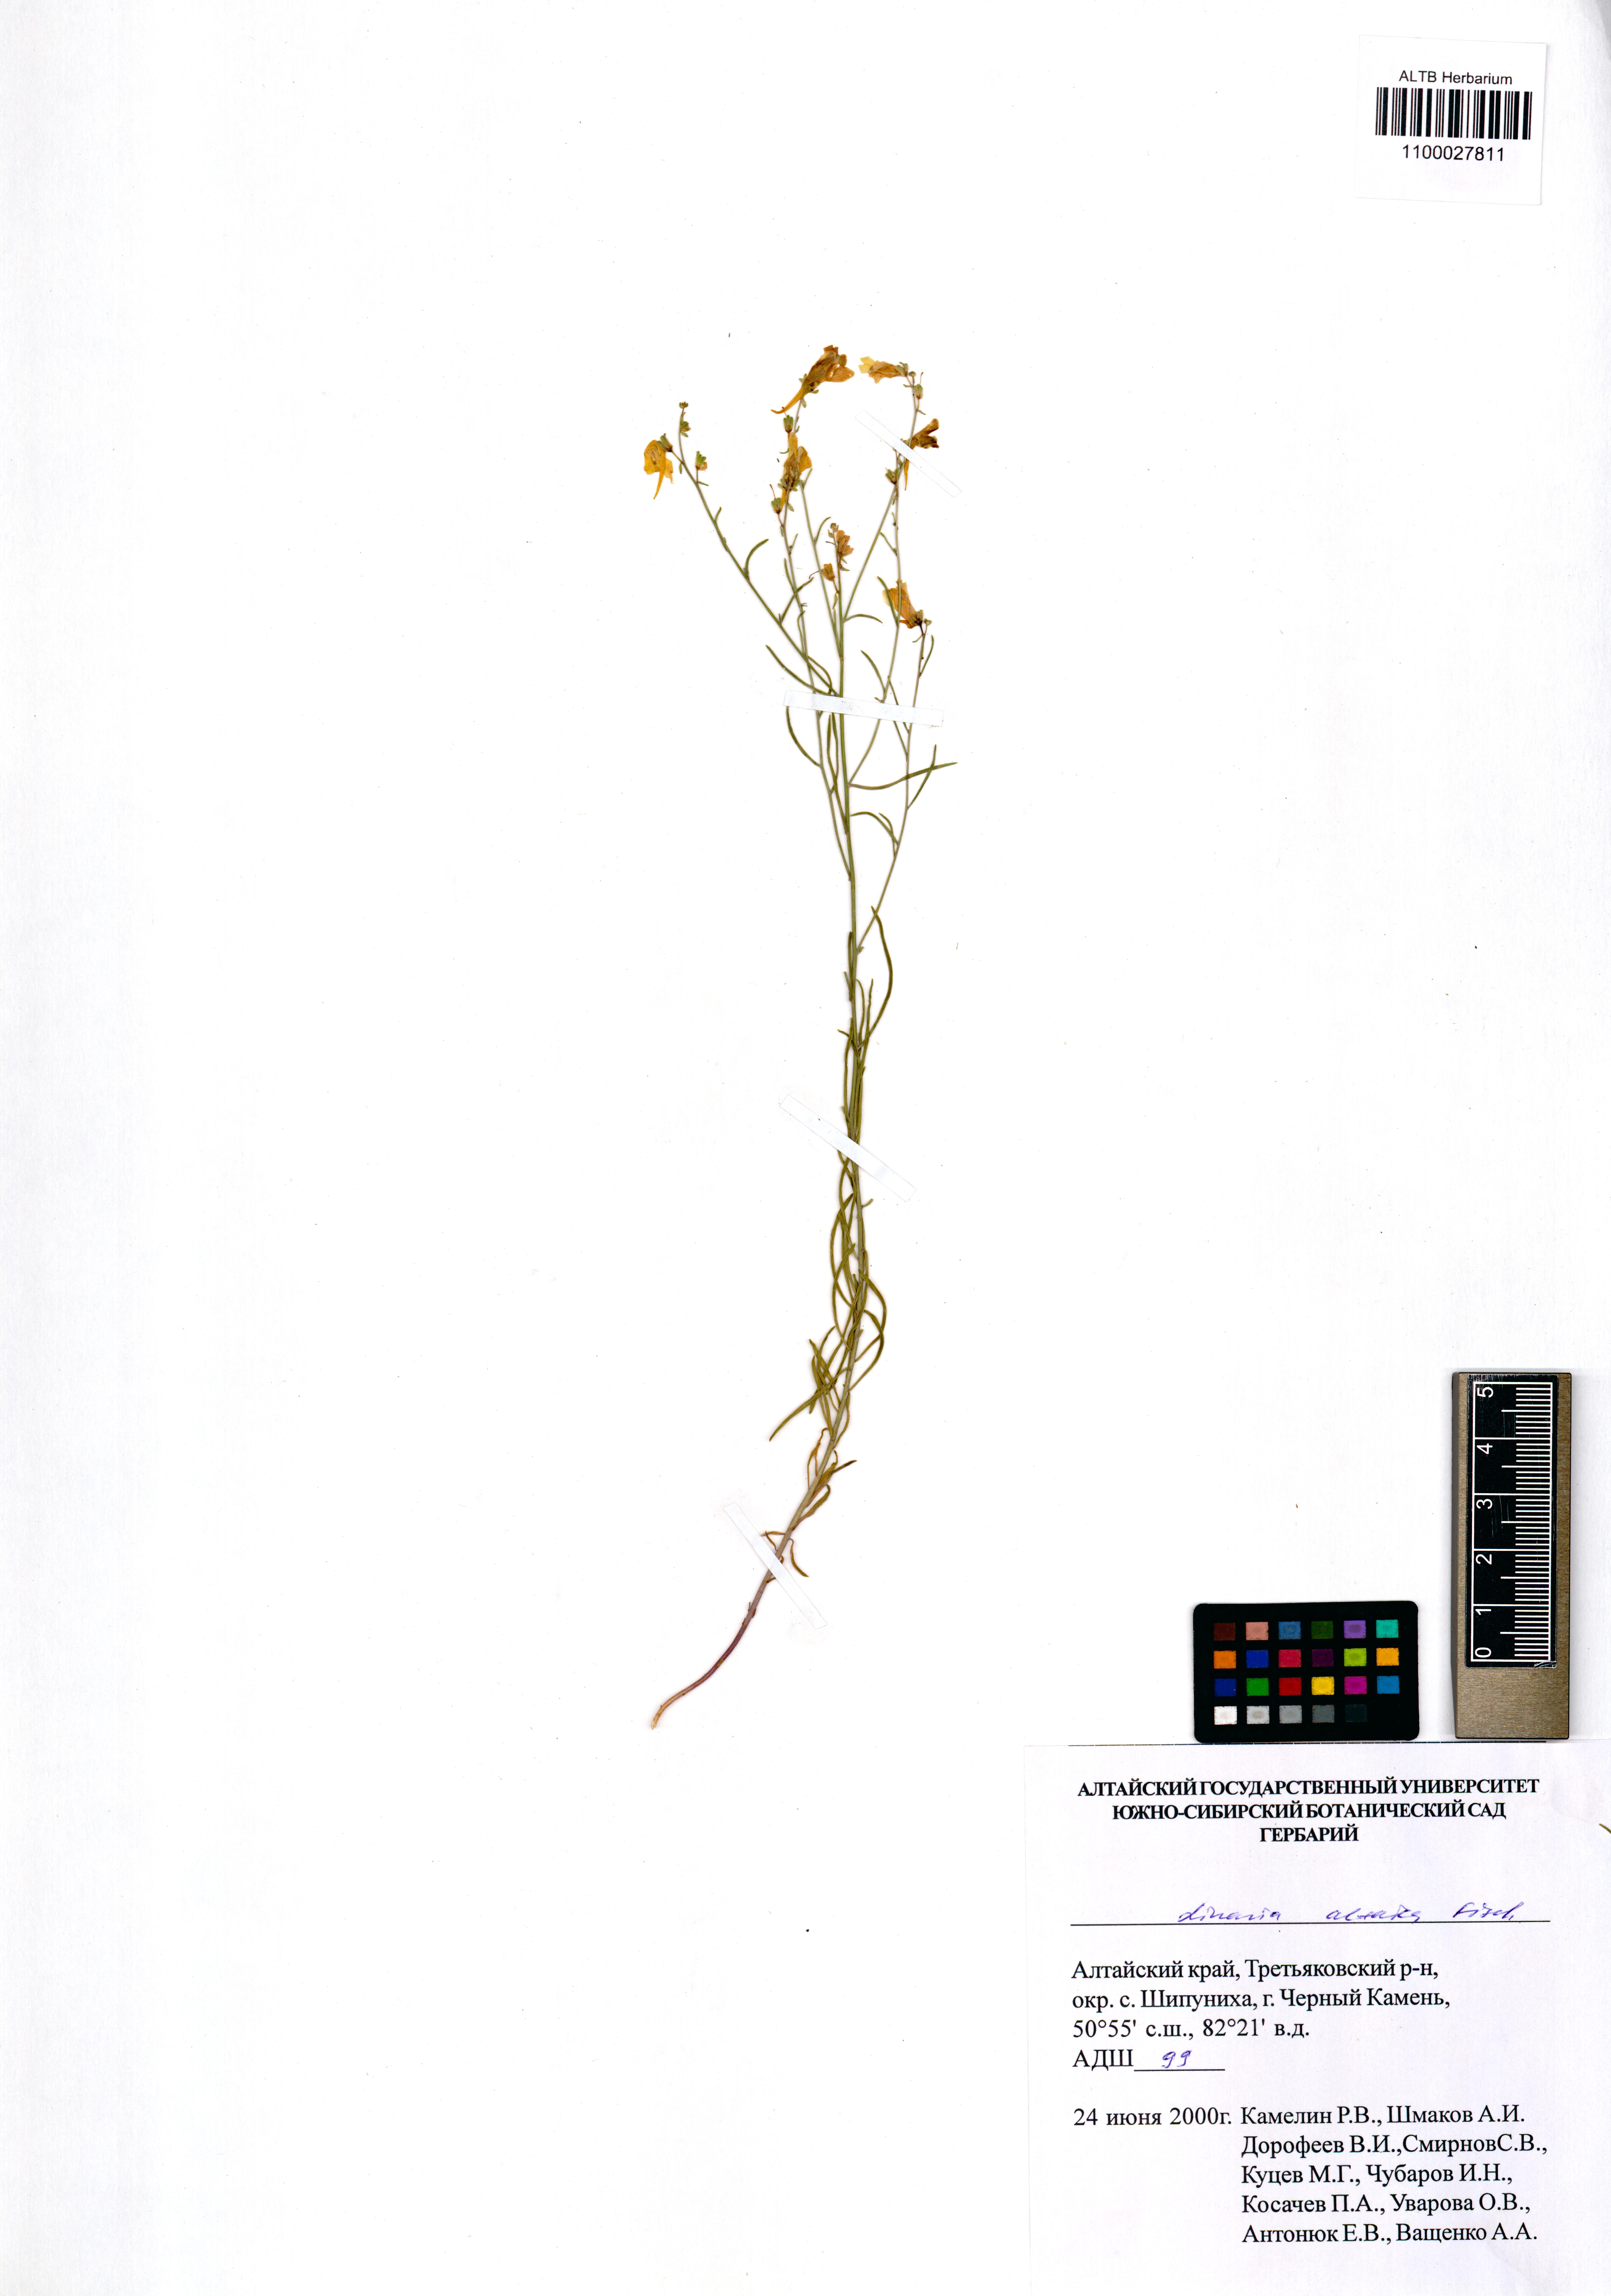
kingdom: Plantae
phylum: Tracheophyta
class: Magnoliopsida
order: Lamiales
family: Plantaginaceae
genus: Linaria
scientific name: Linaria altaica
